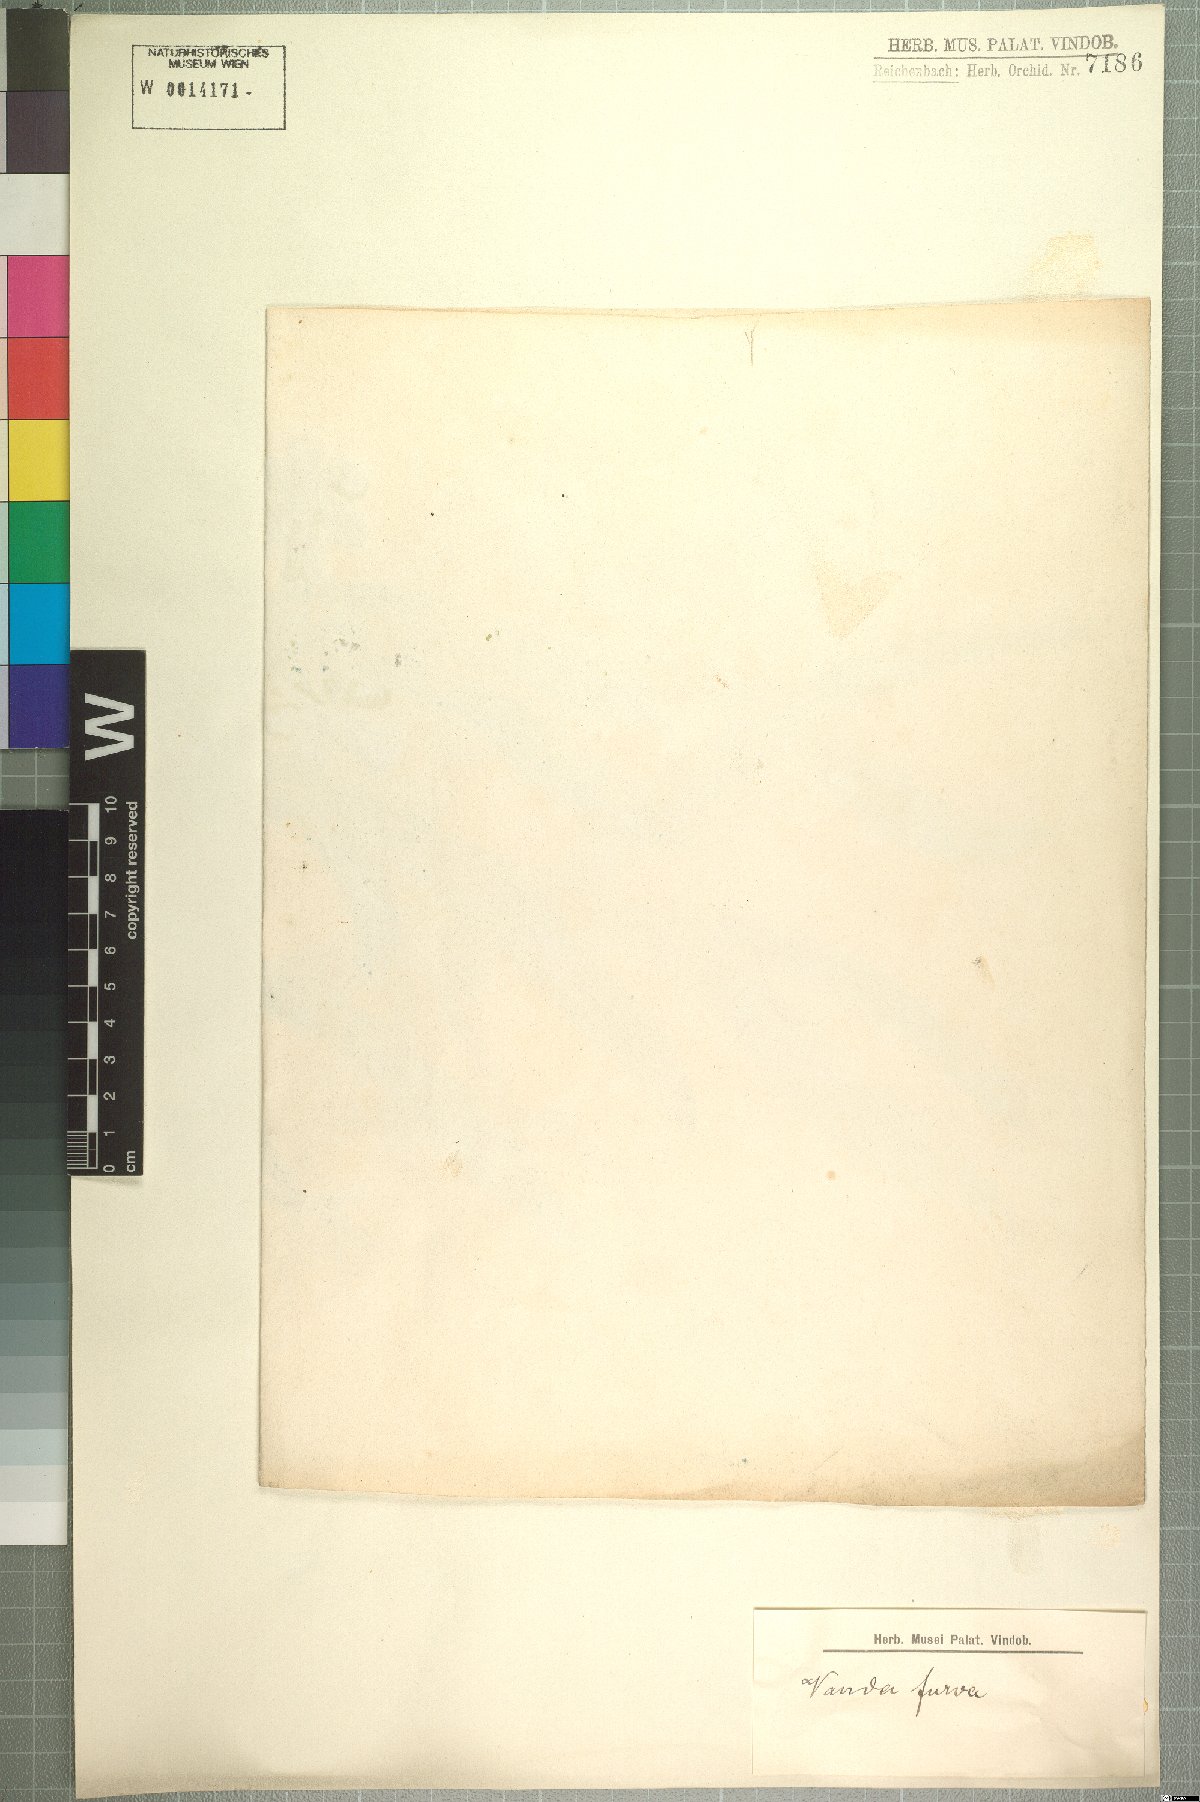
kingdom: Plantae
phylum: Tracheophyta
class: Liliopsida
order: Asparagales
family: Orchidaceae
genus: Vanda
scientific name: Vanda furva
